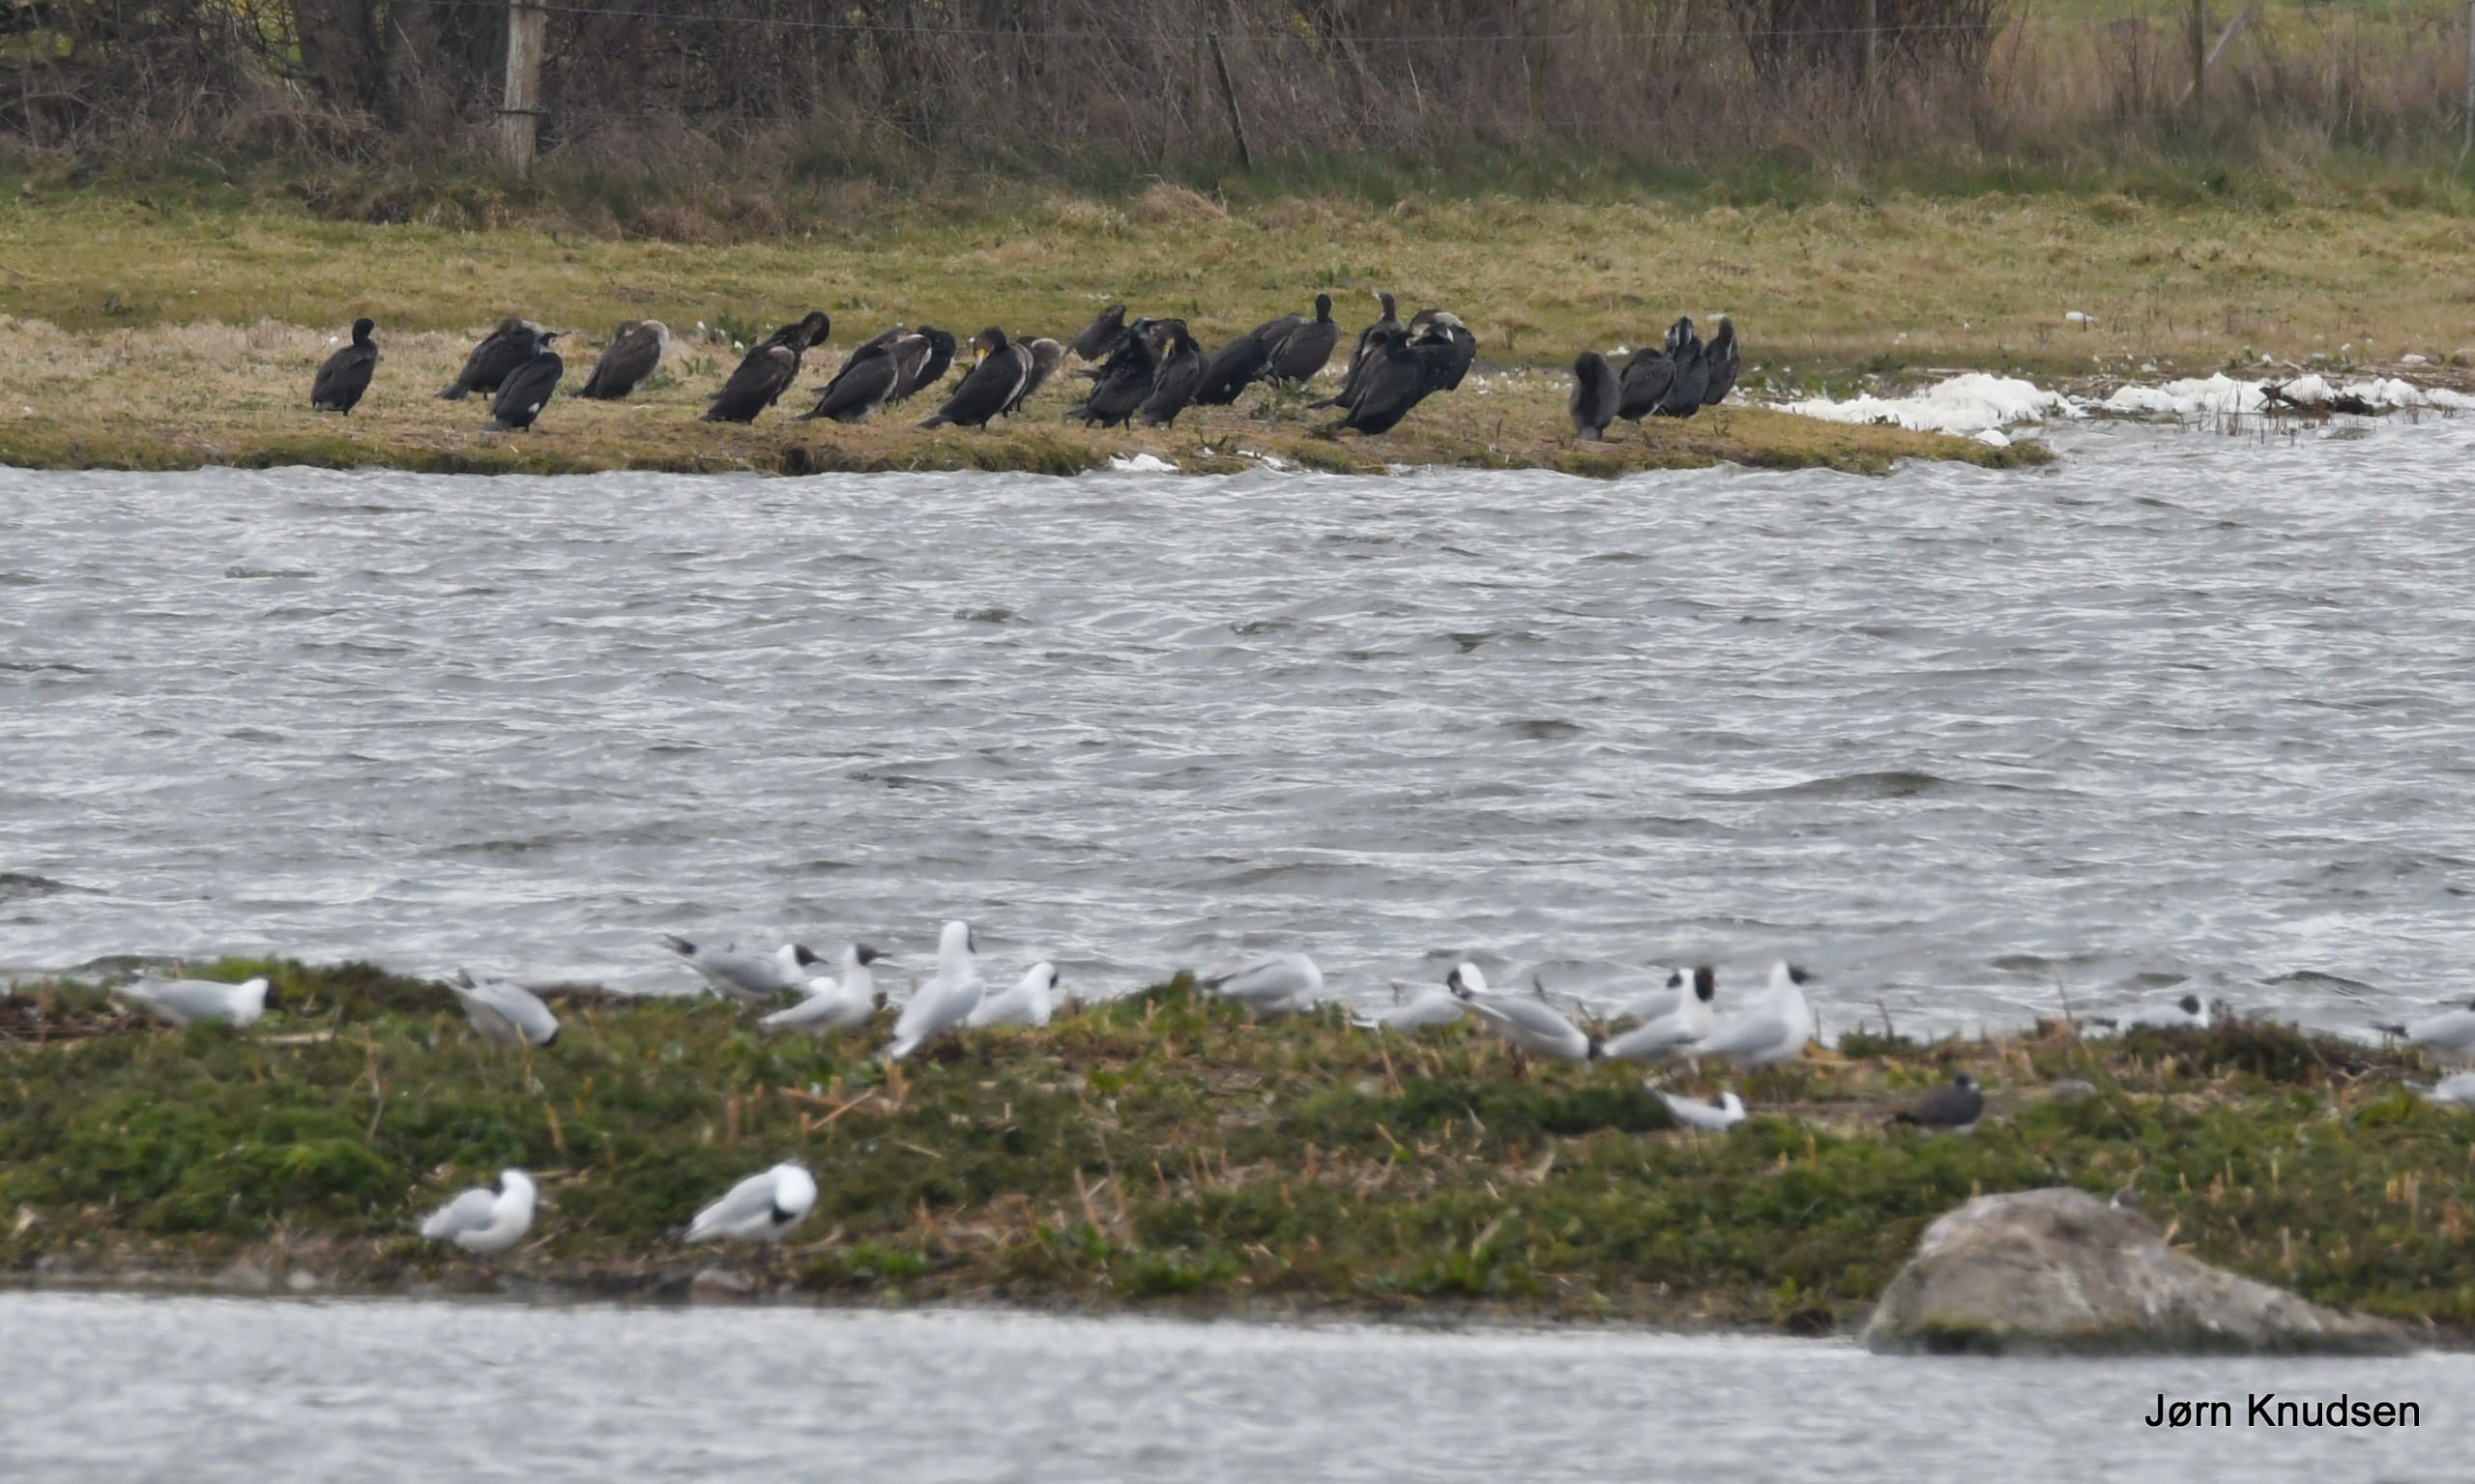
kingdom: Animalia
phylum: Chordata
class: Aves
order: Charadriiformes
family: Laridae
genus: Chroicocephalus
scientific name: Chroicocephalus ridibundus
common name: Hættemåge
